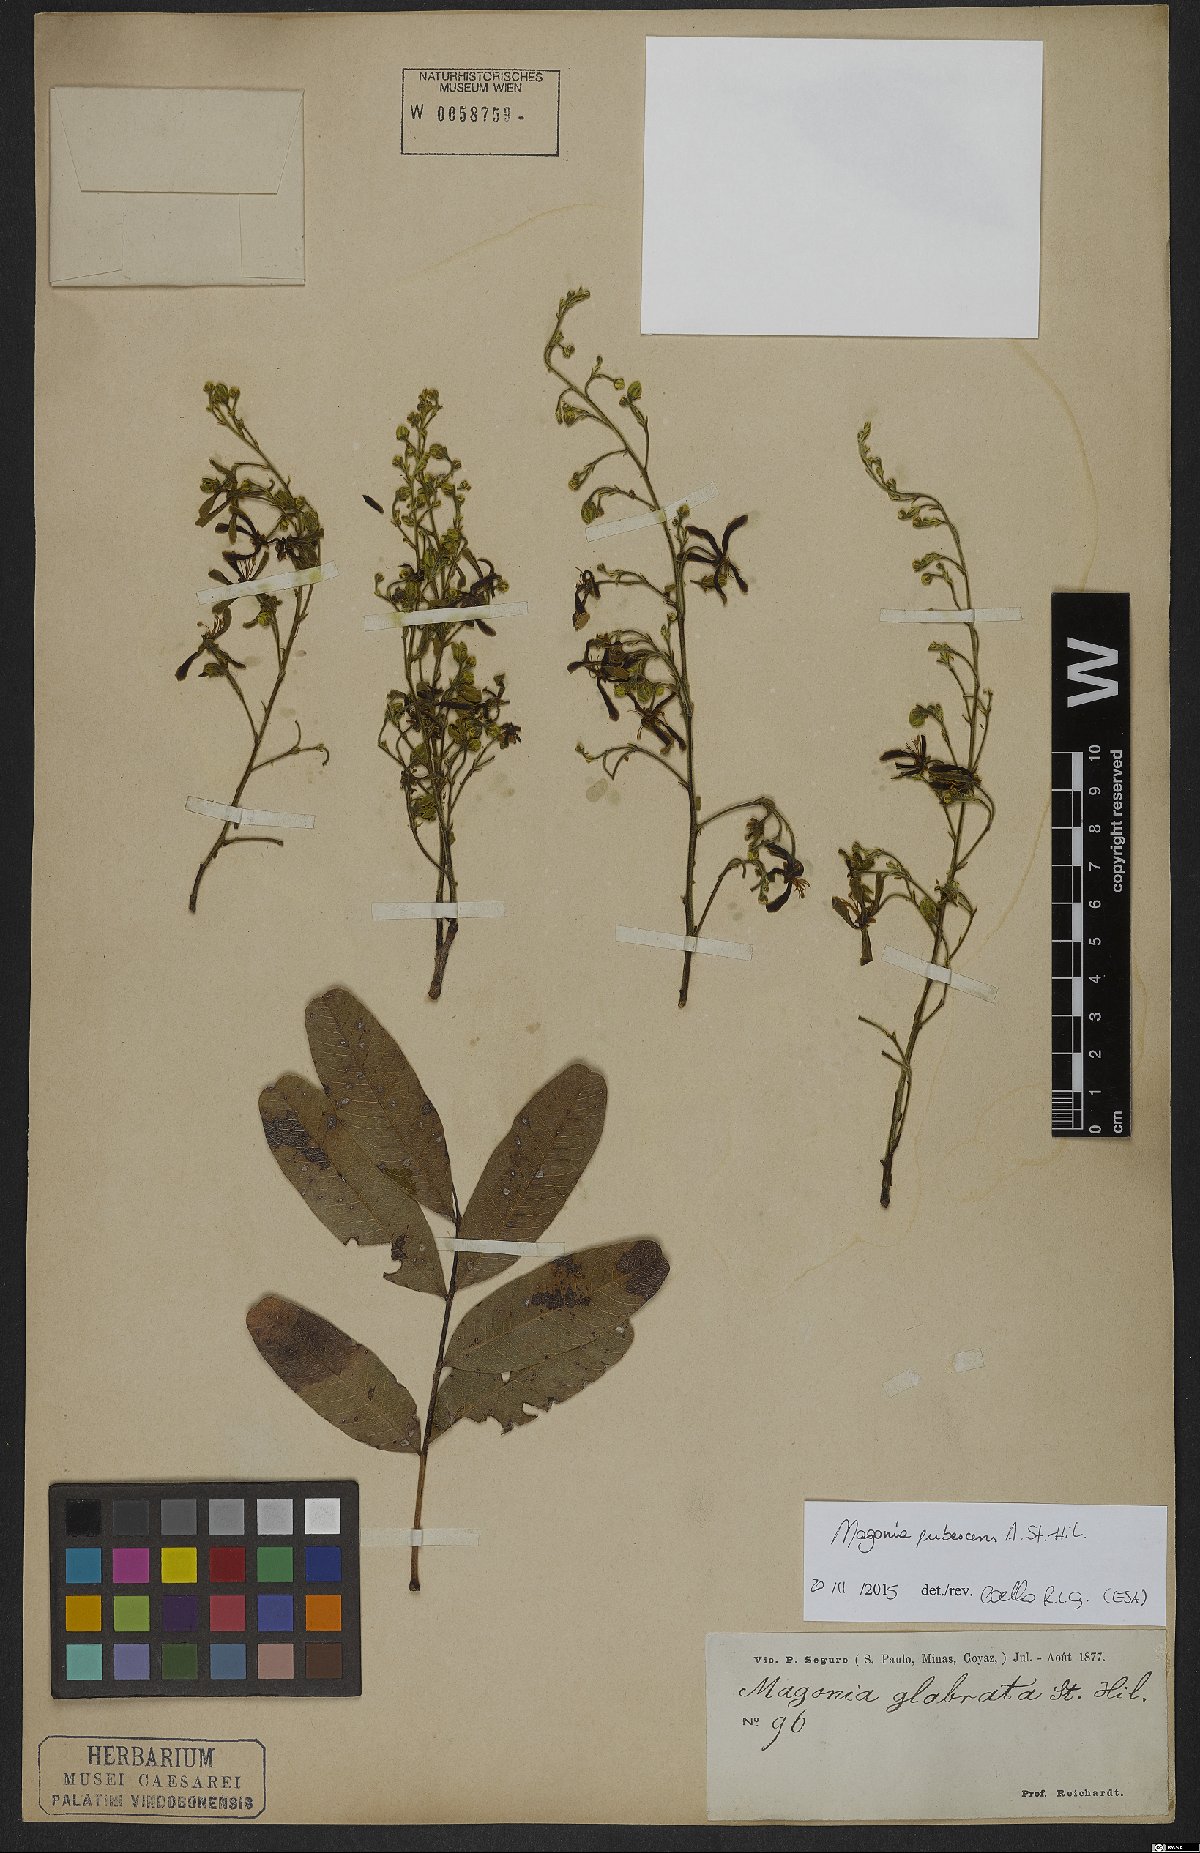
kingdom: Plantae
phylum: Tracheophyta
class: Magnoliopsida
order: Sapindales
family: Sapindaceae
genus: Magonia
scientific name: Magonia pubescens
